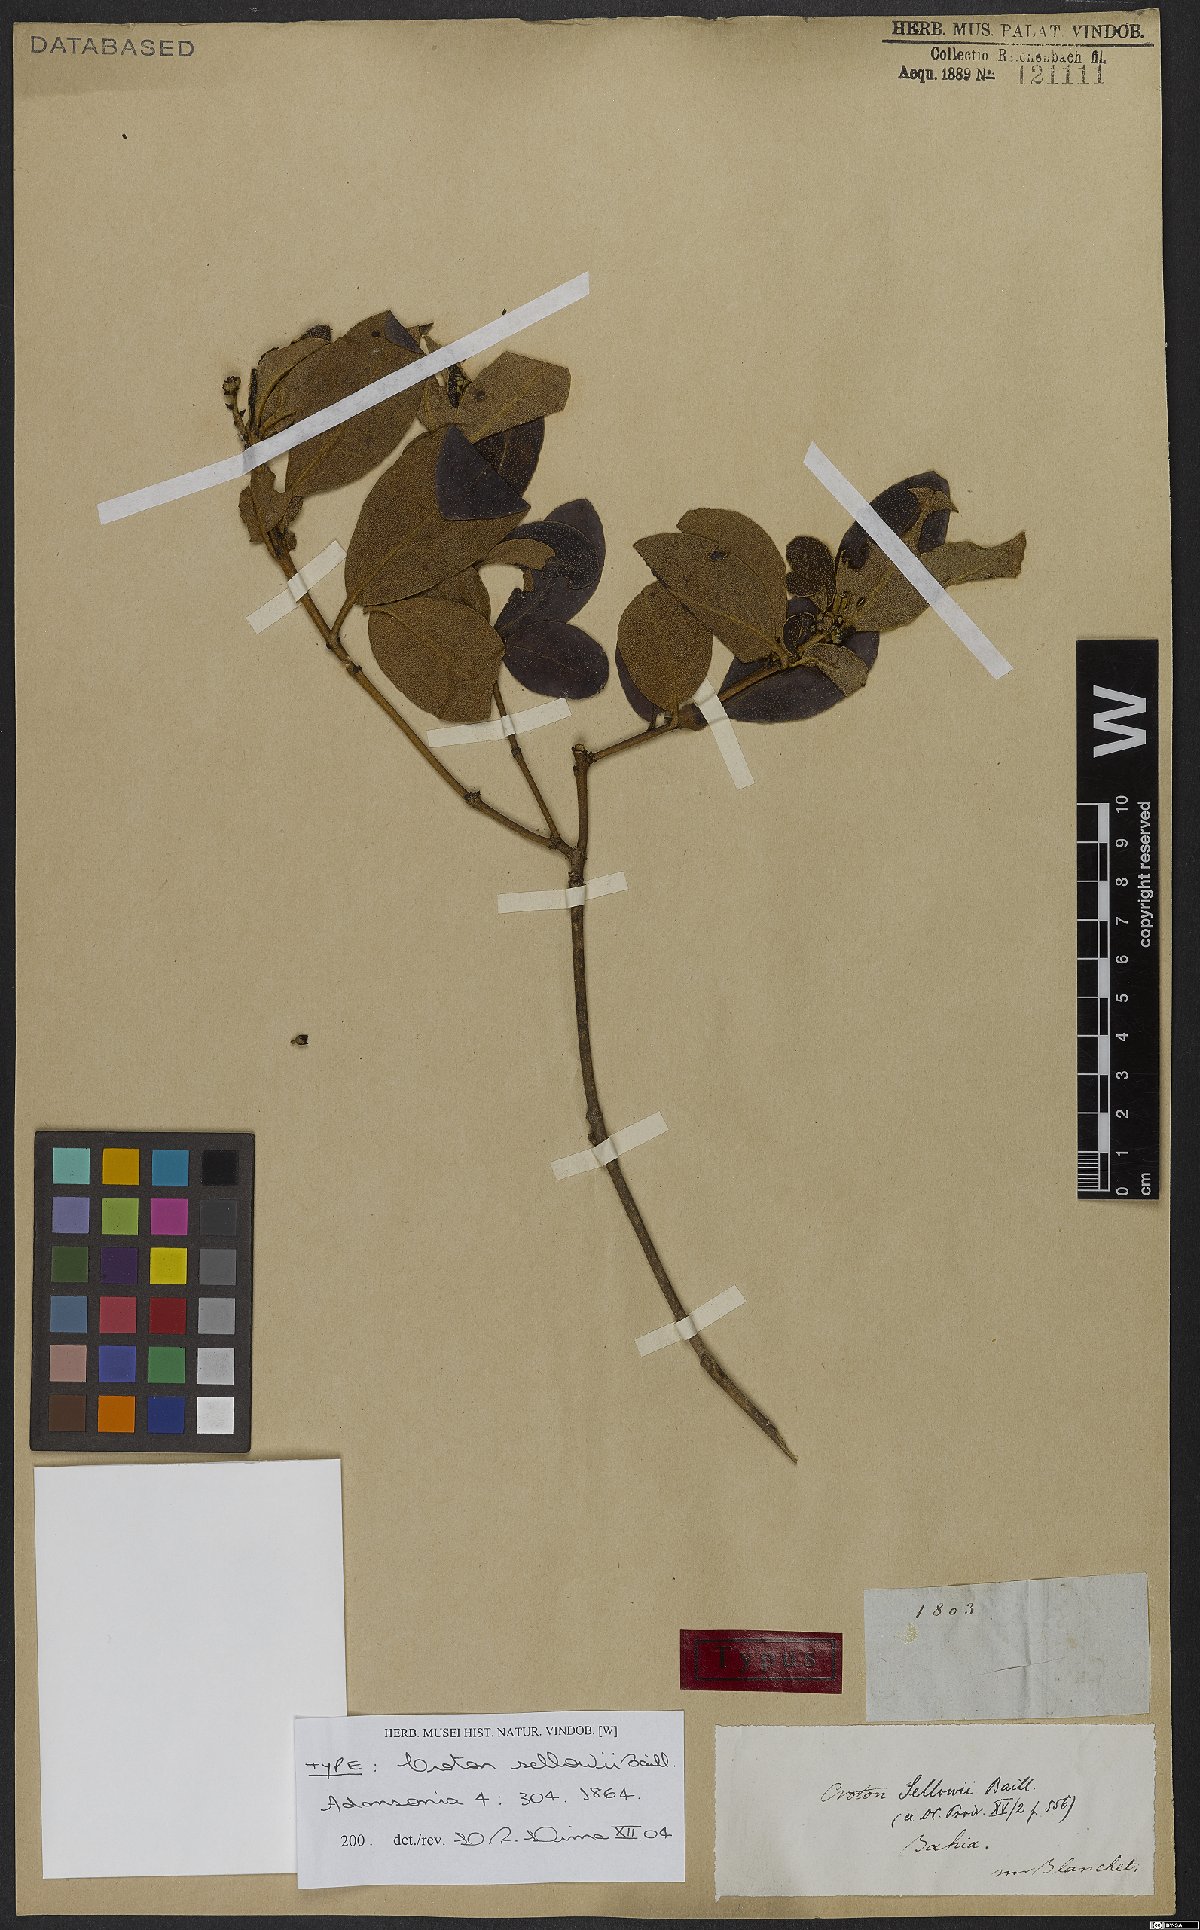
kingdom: Plantae
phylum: Tracheophyta
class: Magnoliopsida
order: Malpighiales
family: Euphorbiaceae
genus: Croton
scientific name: Croton sellowii
